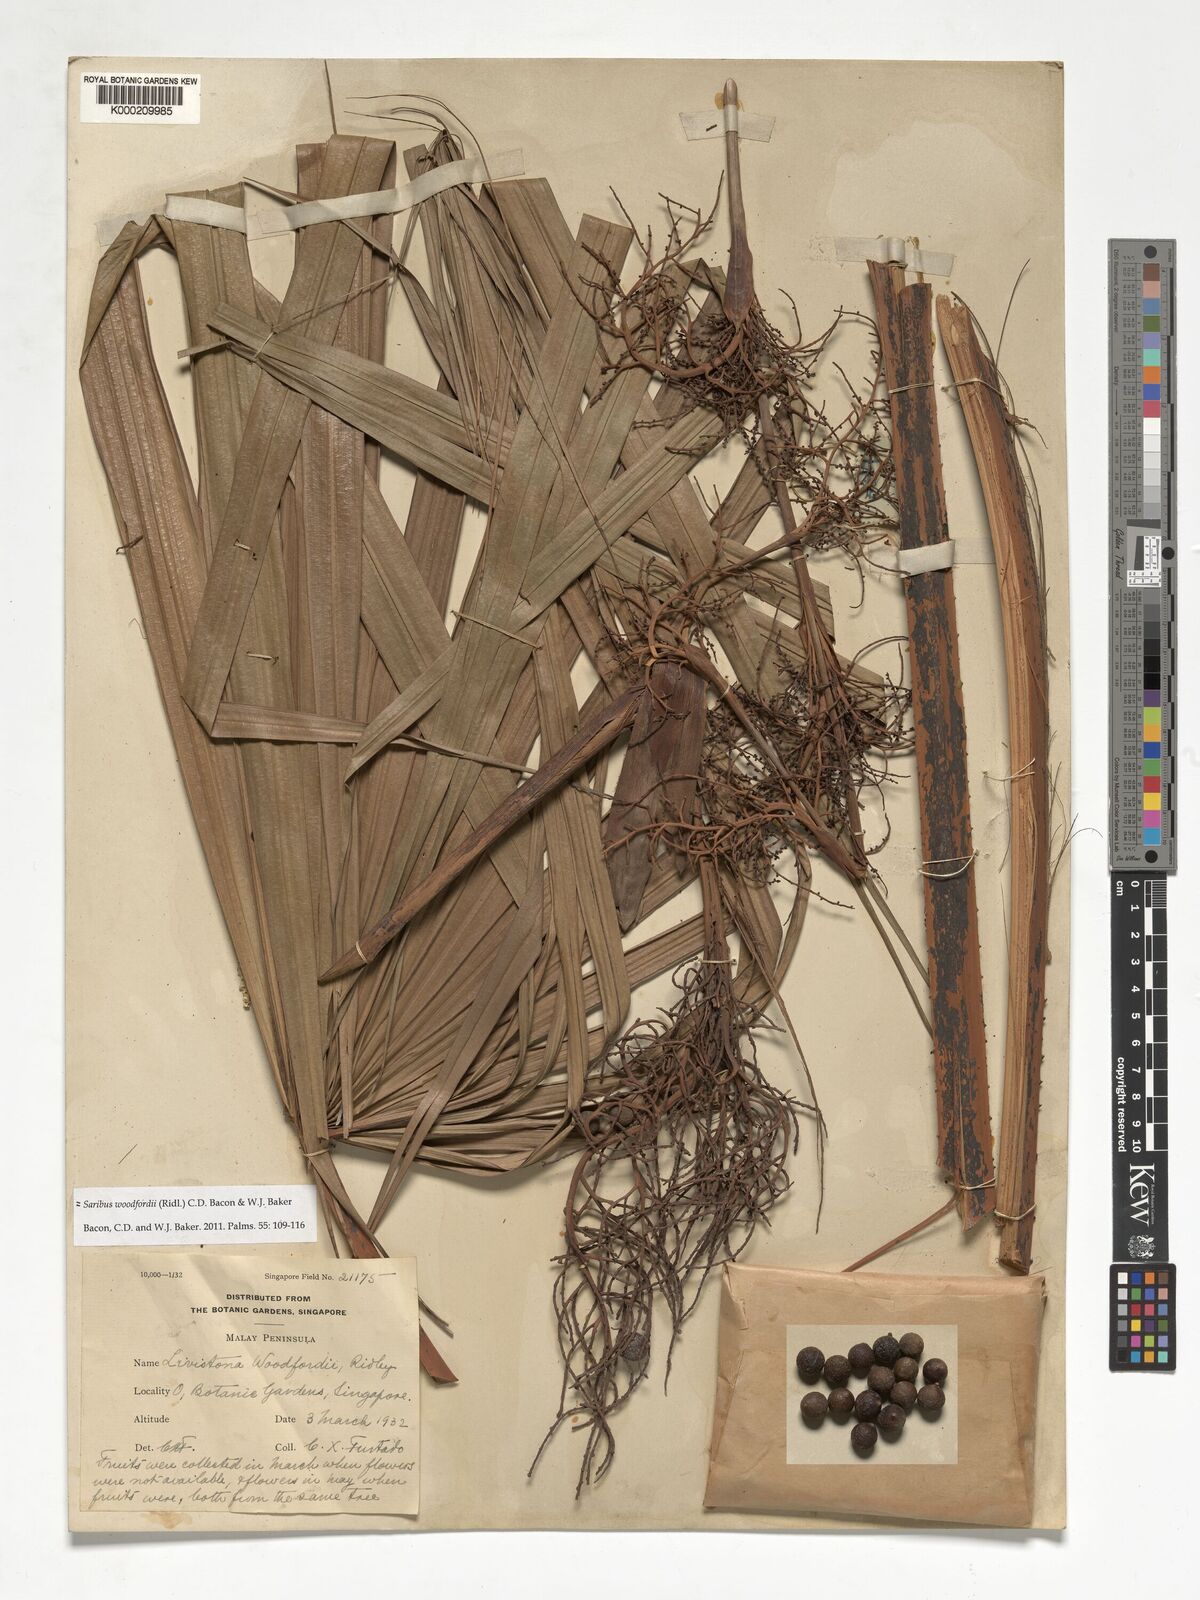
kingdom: Plantae
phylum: Tracheophyta
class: Liliopsida
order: Arecales
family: Arecaceae
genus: Saribus
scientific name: Saribus woodfordii
